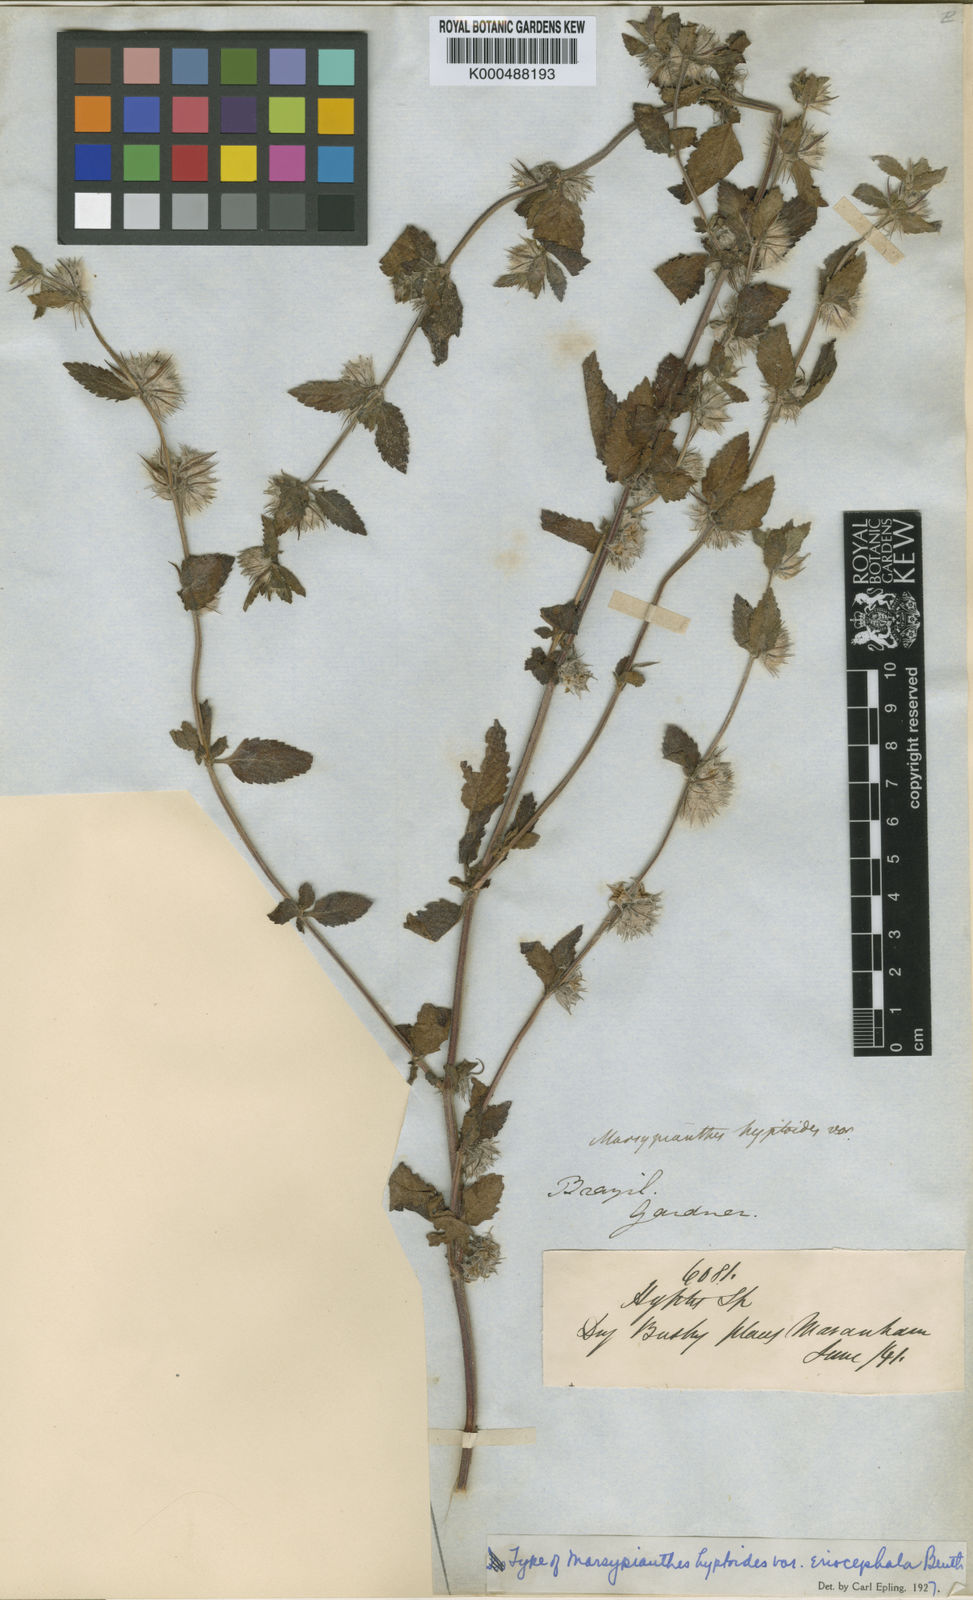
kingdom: Plantae
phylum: Tracheophyta
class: Magnoliopsida
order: Lamiales
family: Lamiaceae
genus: Marsypianthes
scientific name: Marsypianthes chamaedrys
